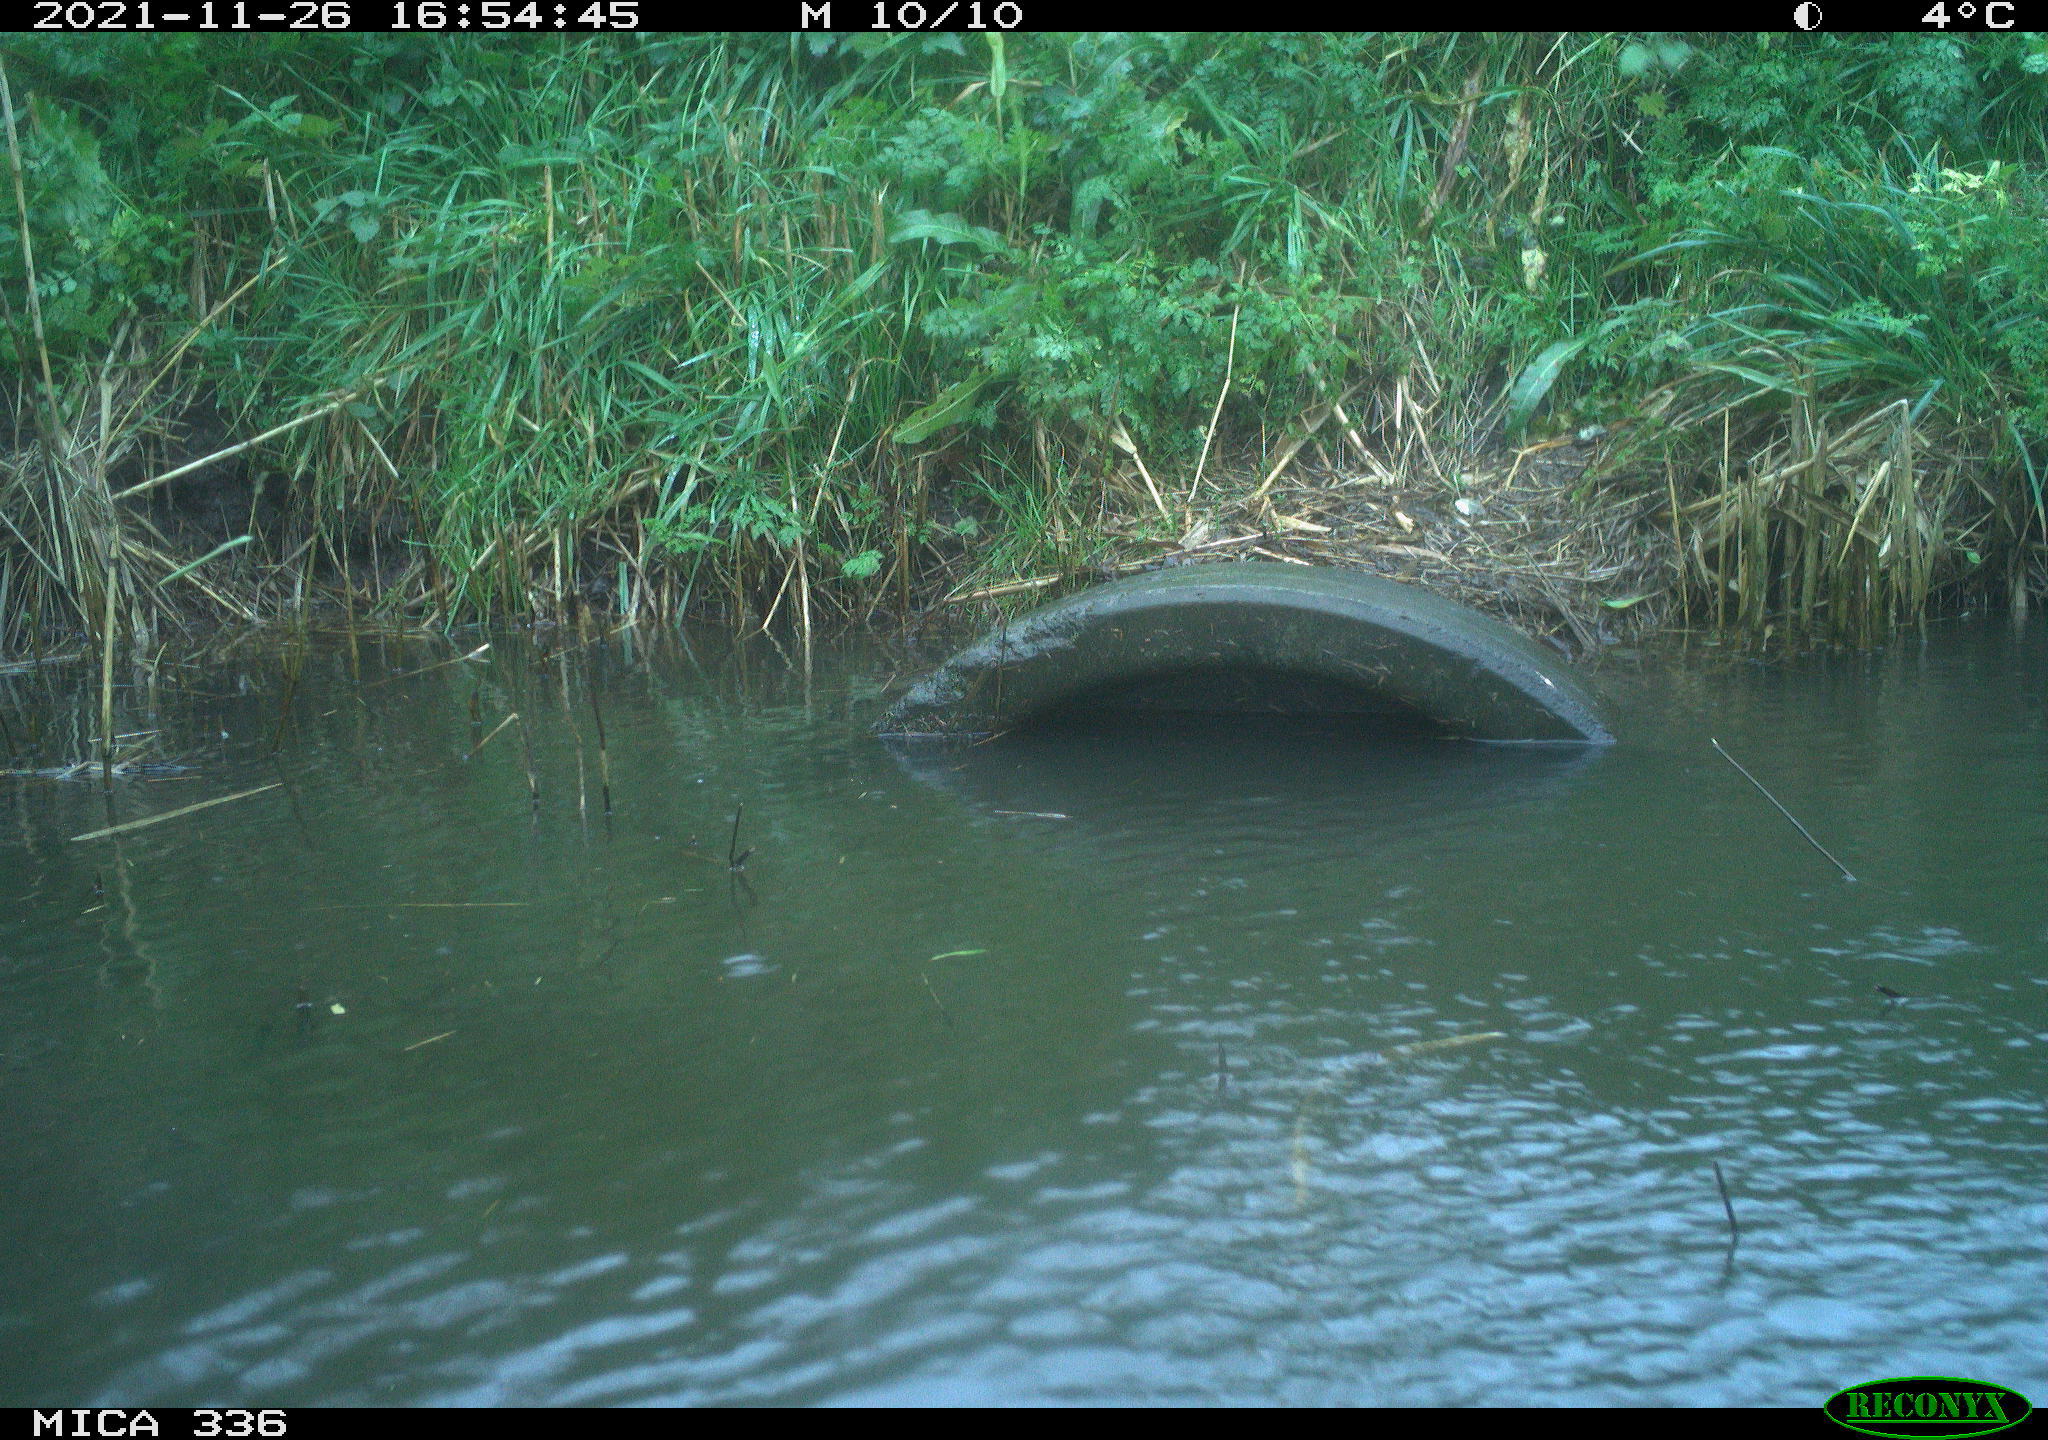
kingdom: Animalia
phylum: Chordata
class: Aves
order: Gruiformes
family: Rallidae
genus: Gallinula
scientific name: Gallinula chloropus
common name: Common moorhen
